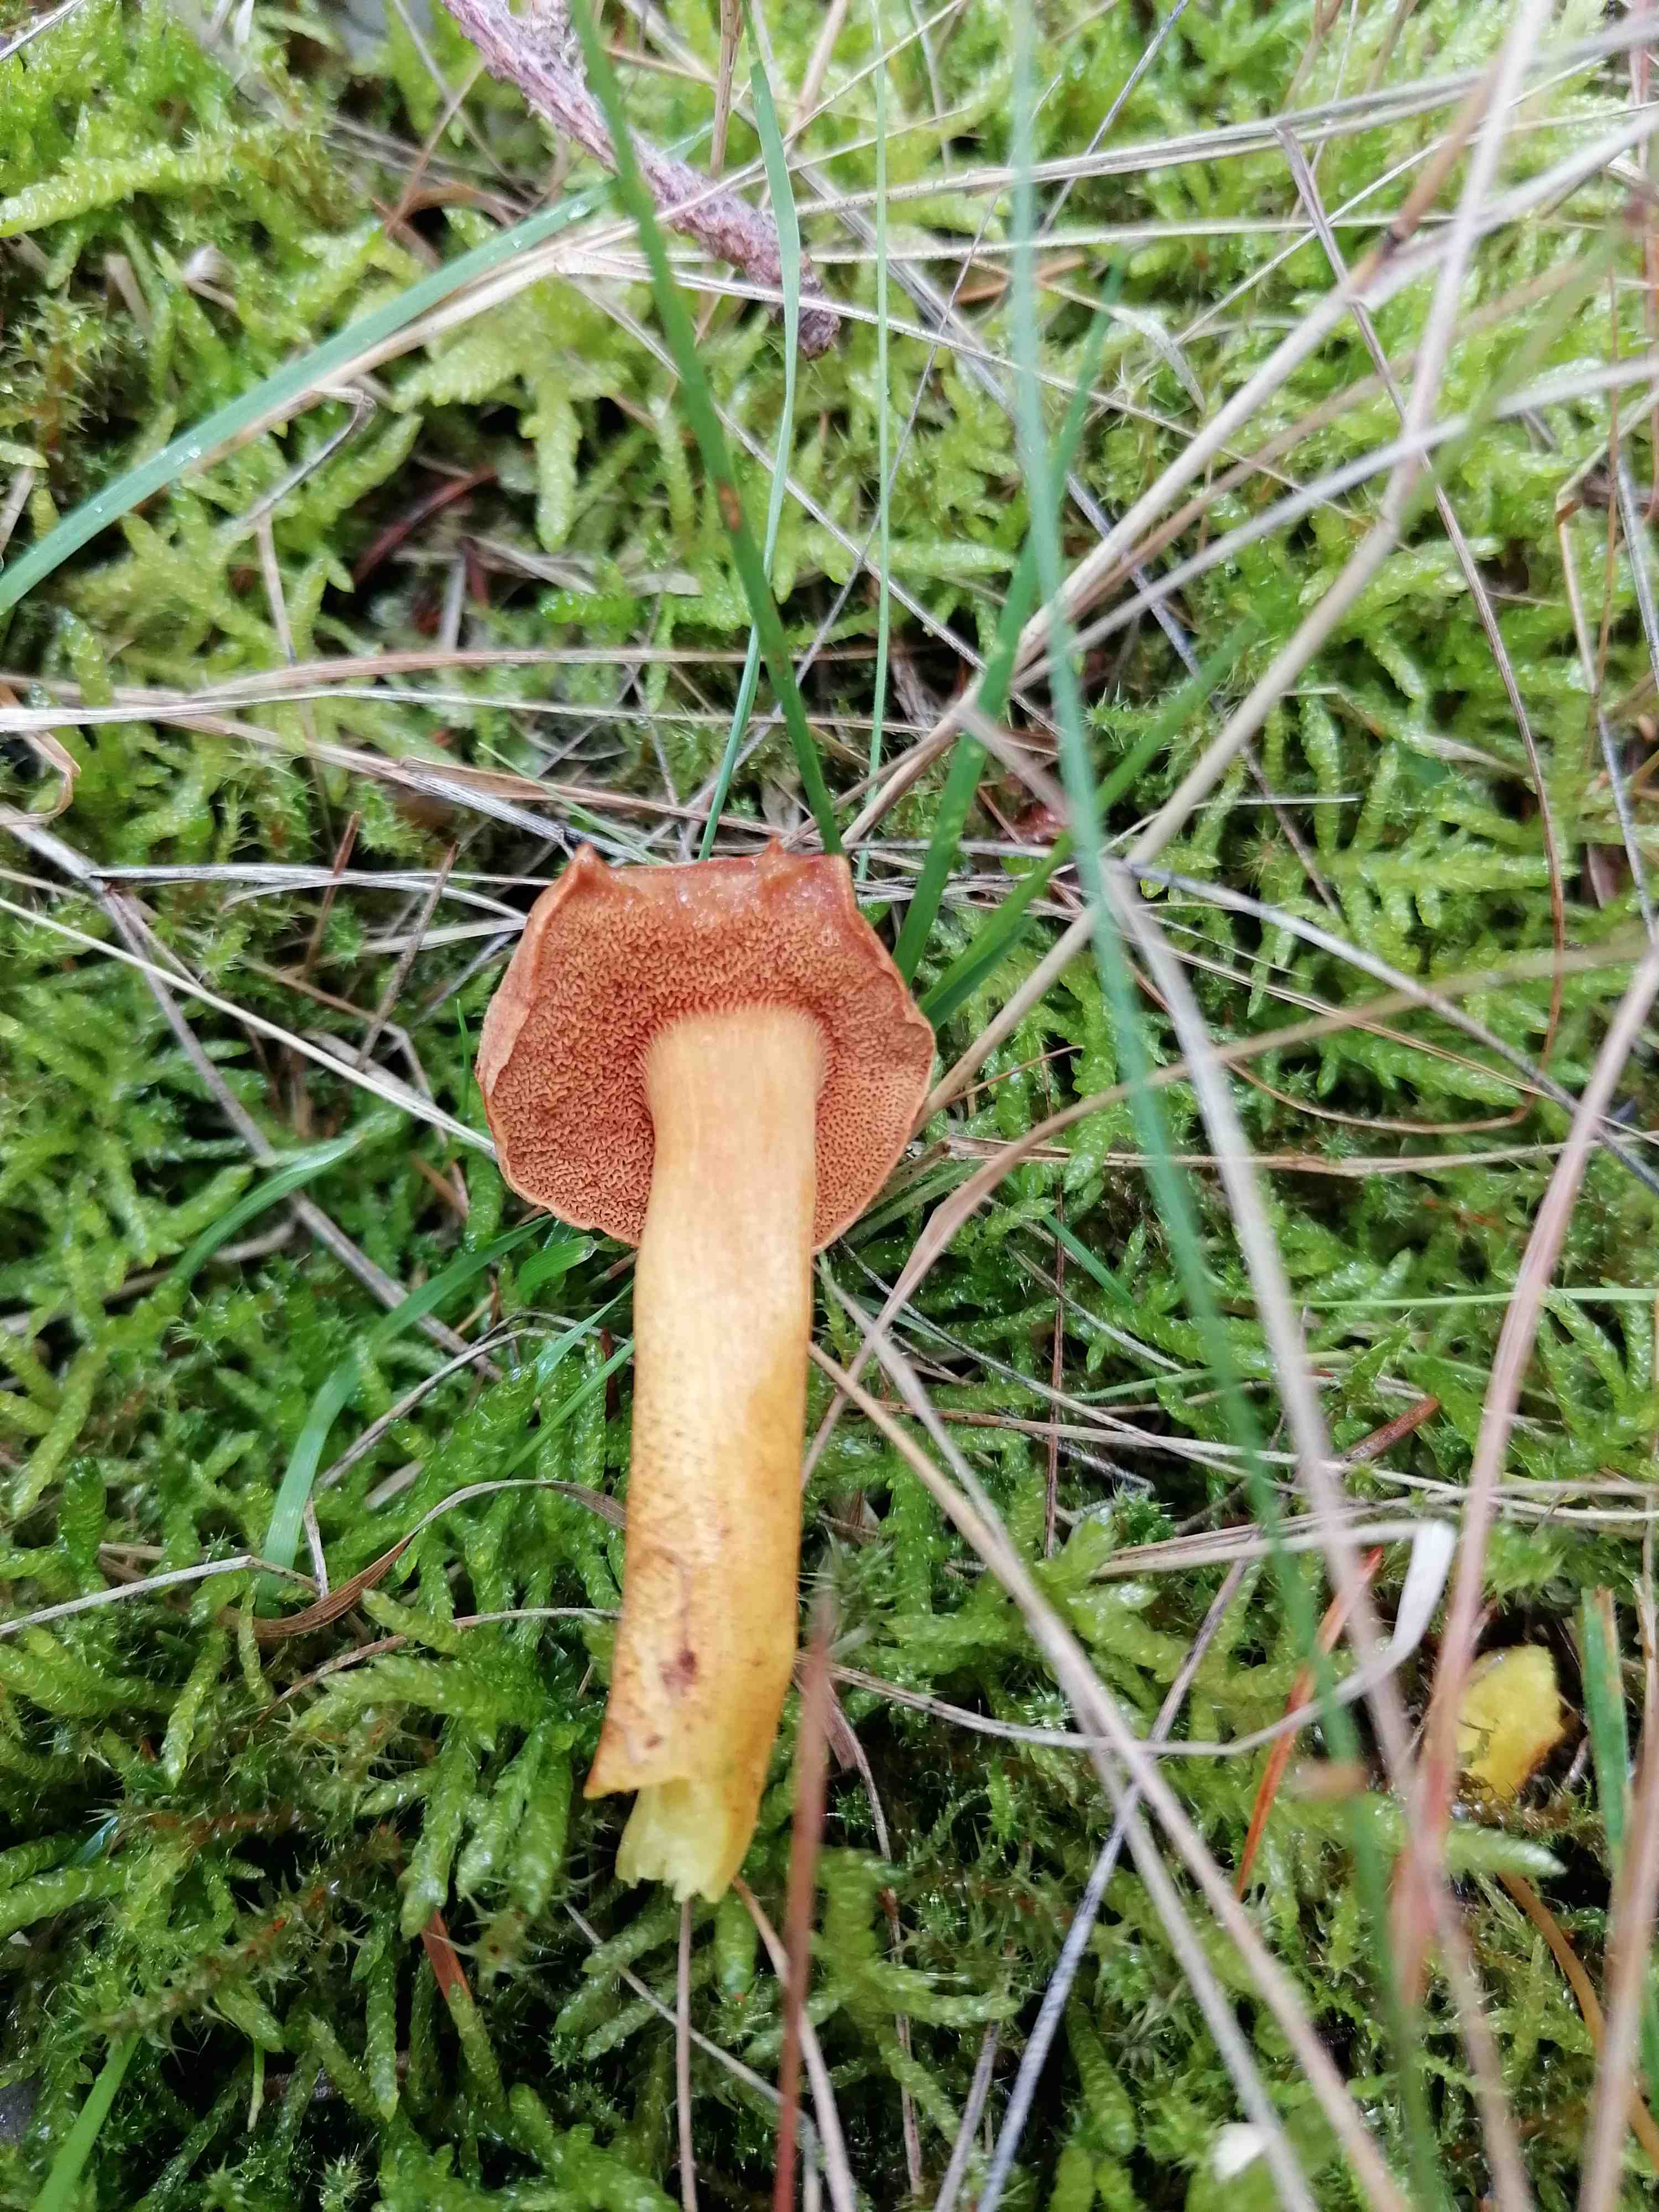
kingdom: Fungi
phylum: Basidiomycota
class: Agaricomycetes
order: Boletales
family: Boletaceae
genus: Chalciporus
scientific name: Chalciporus piperatus
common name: peberrørhat
